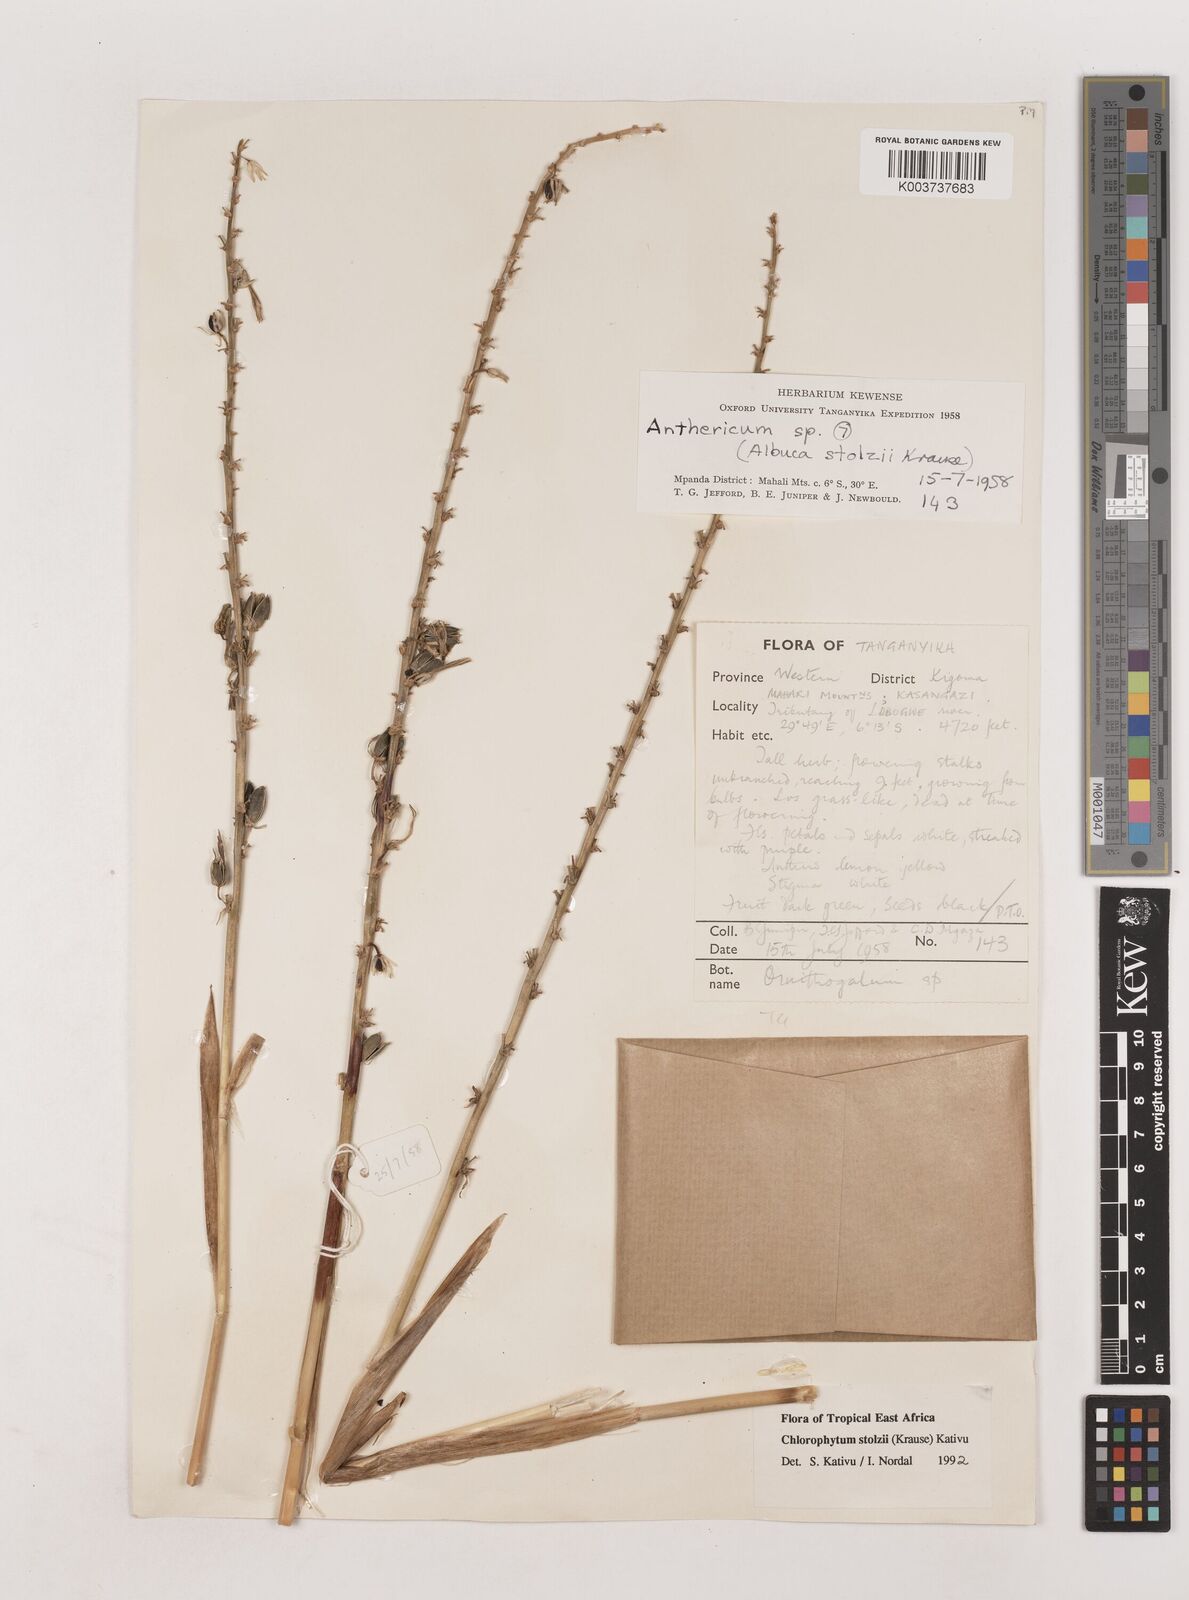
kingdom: Plantae
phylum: Tracheophyta
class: Liliopsida
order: Asparagales
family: Asparagaceae
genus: Chlorophytum
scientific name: Chlorophytum stolzii
